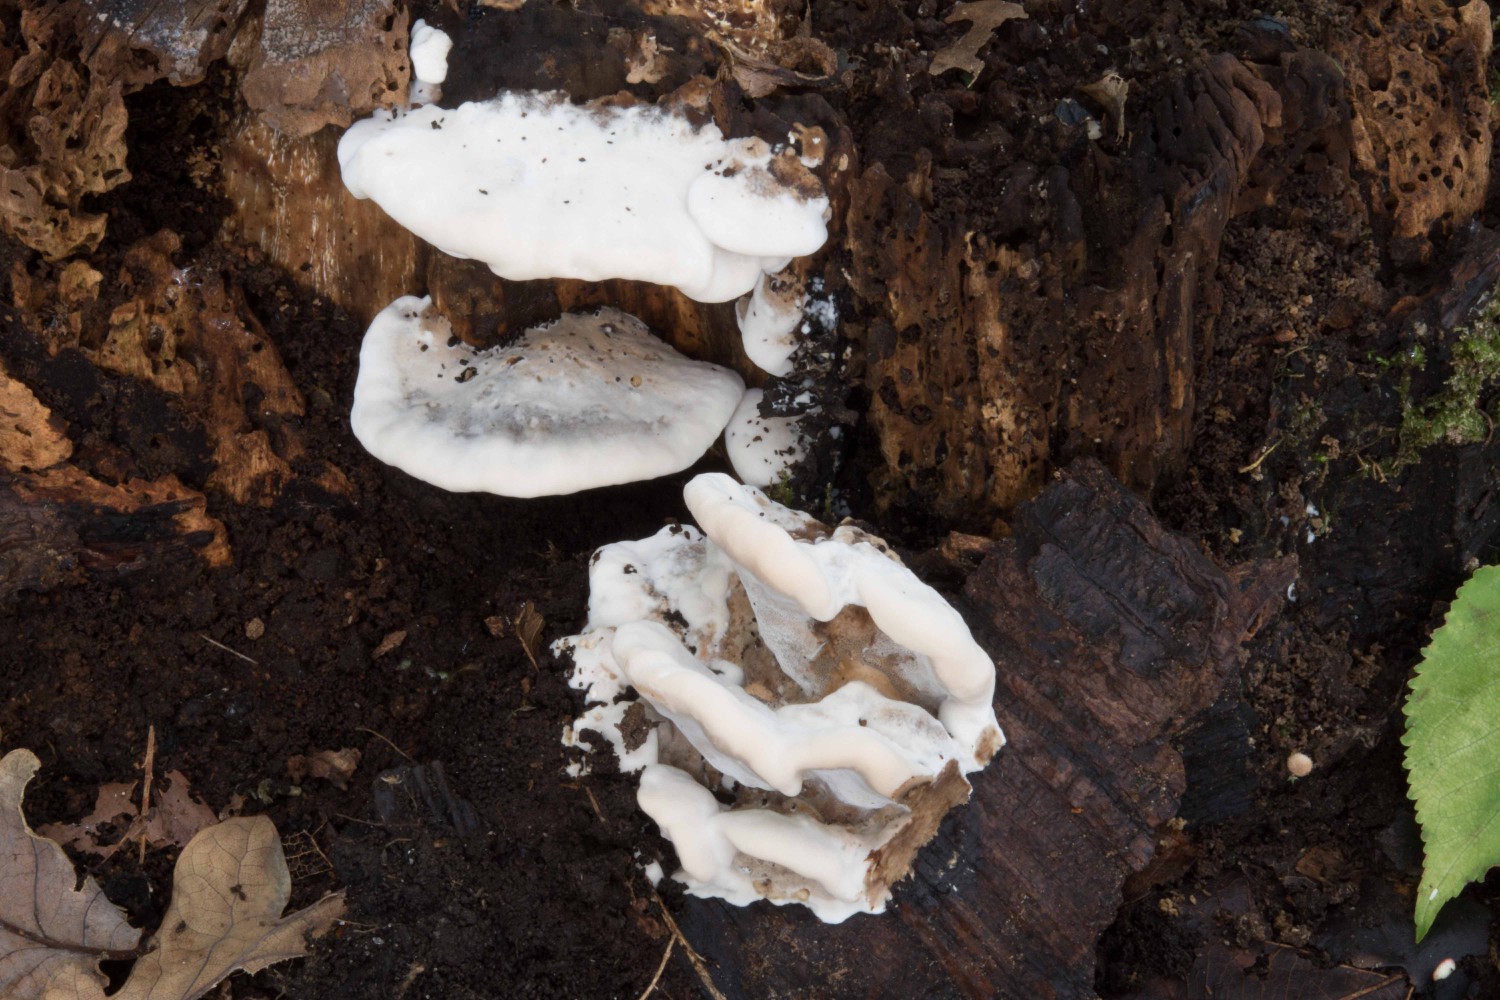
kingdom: Fungi
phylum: Basidiomycota
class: Agaricomycetes
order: Polyporales
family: Phanerochaetaceae
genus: Bjerkandera
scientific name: Bjerkandera fumosa
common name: grågul sodporesvamp
